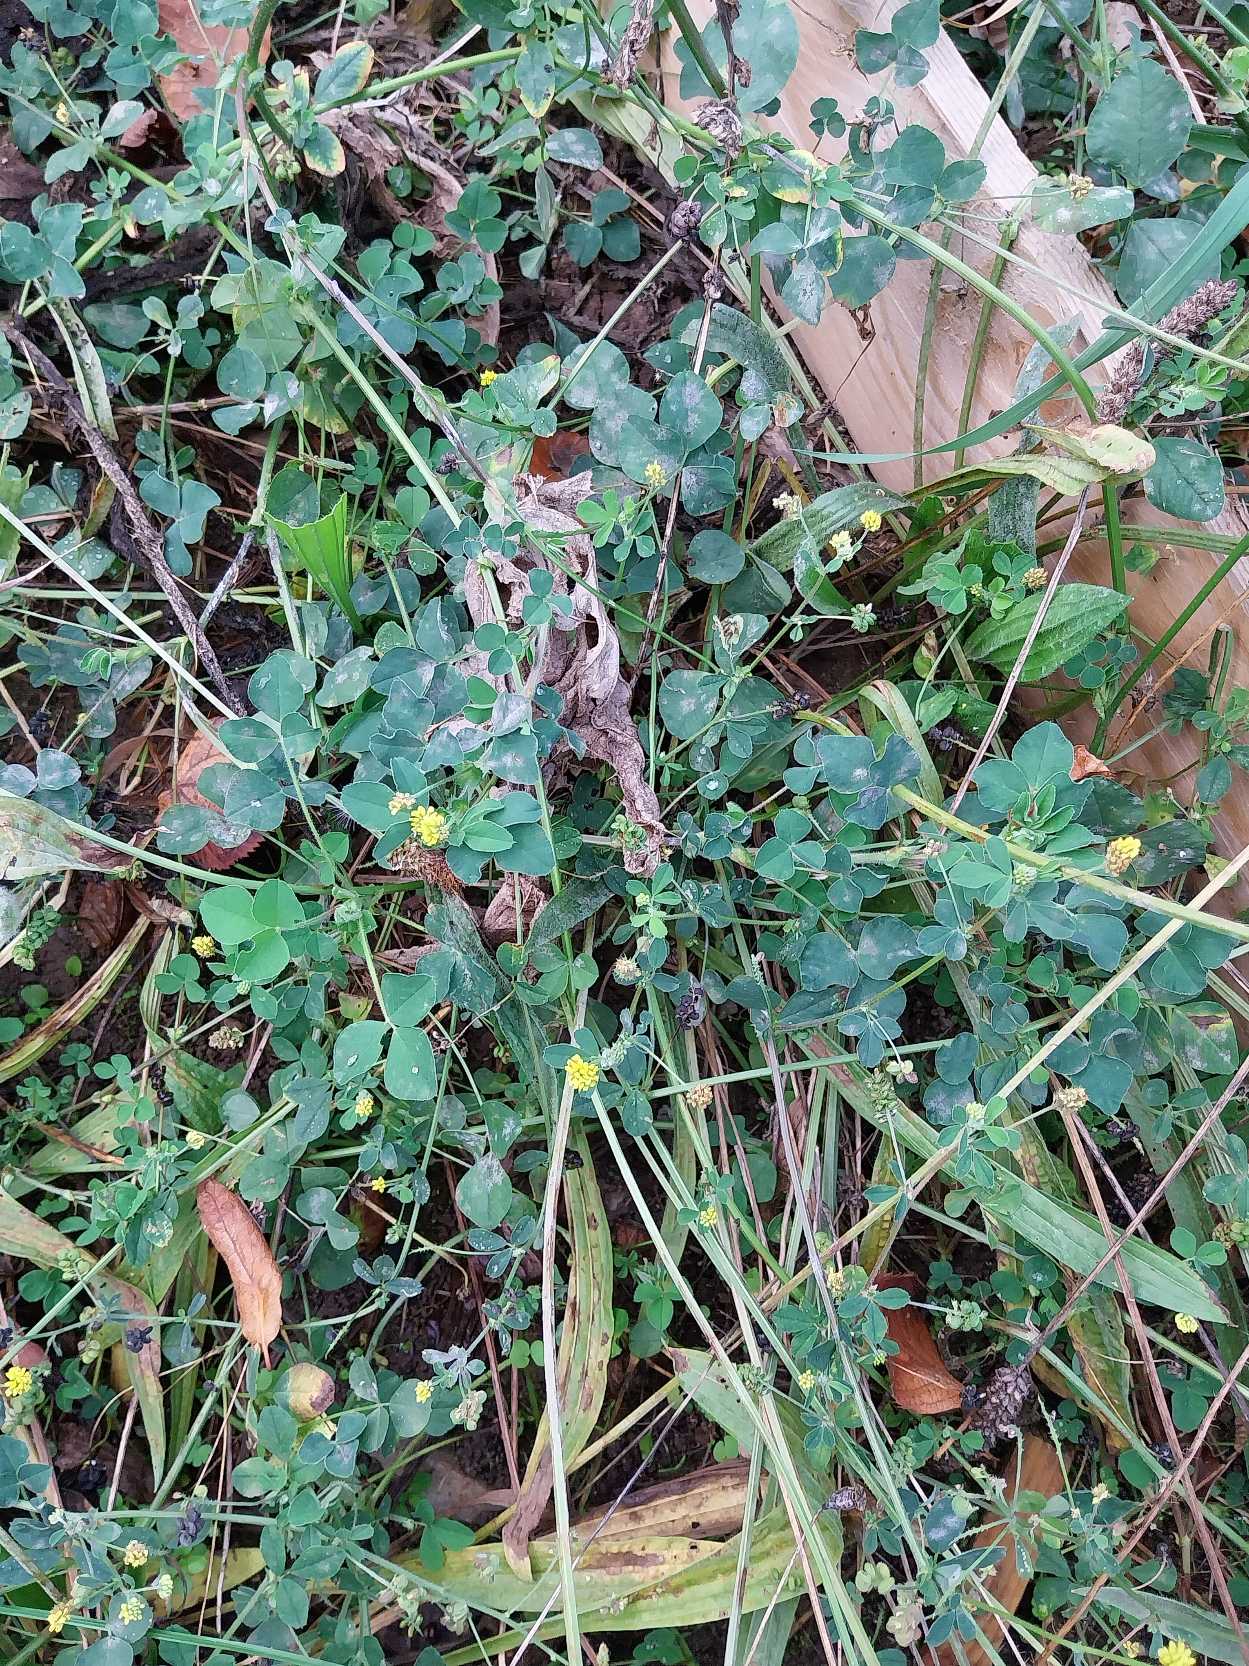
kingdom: Plantae
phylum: Tracheophyta
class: Magnoliopsida
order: Fabales
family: Fabaceae
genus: Medicago
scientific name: Medicago lupulina
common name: Humle-sneglebælg
